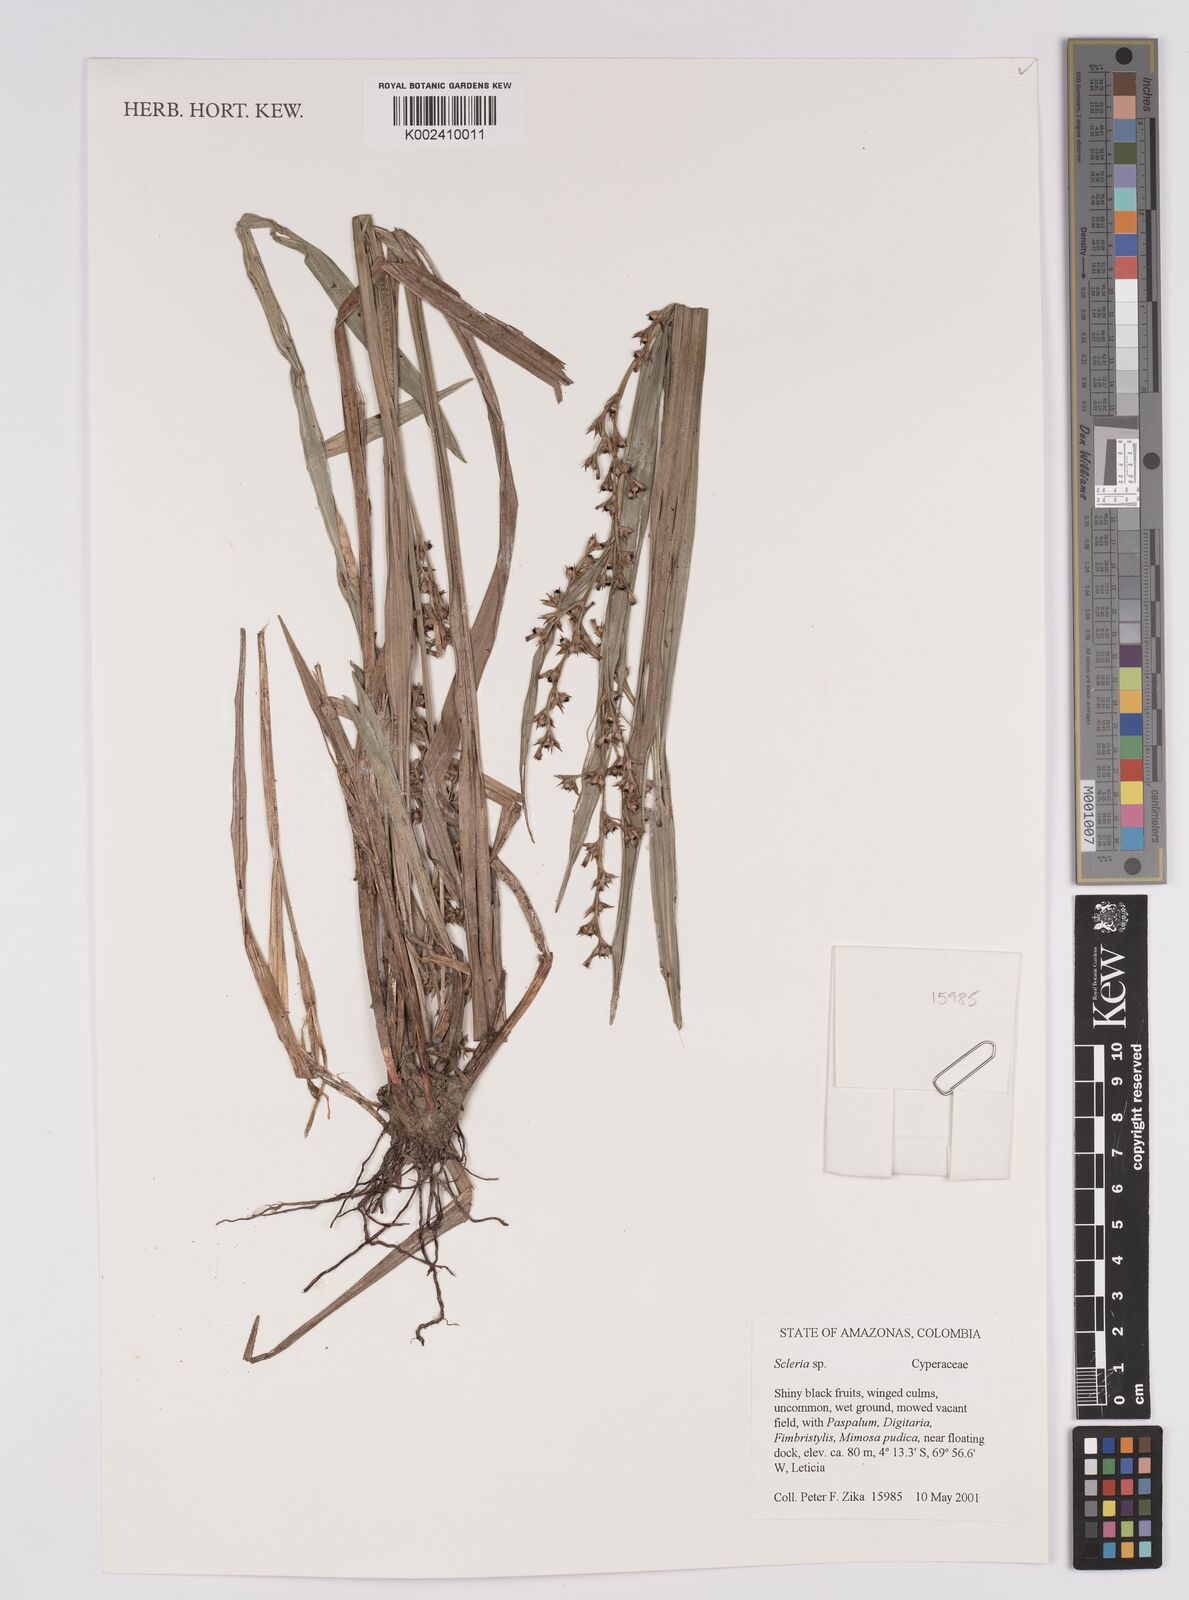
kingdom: Plantae
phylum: Tracheophyta
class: Liliopsida
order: Poales
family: Cyperaceae
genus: Scleria
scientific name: Scleria
